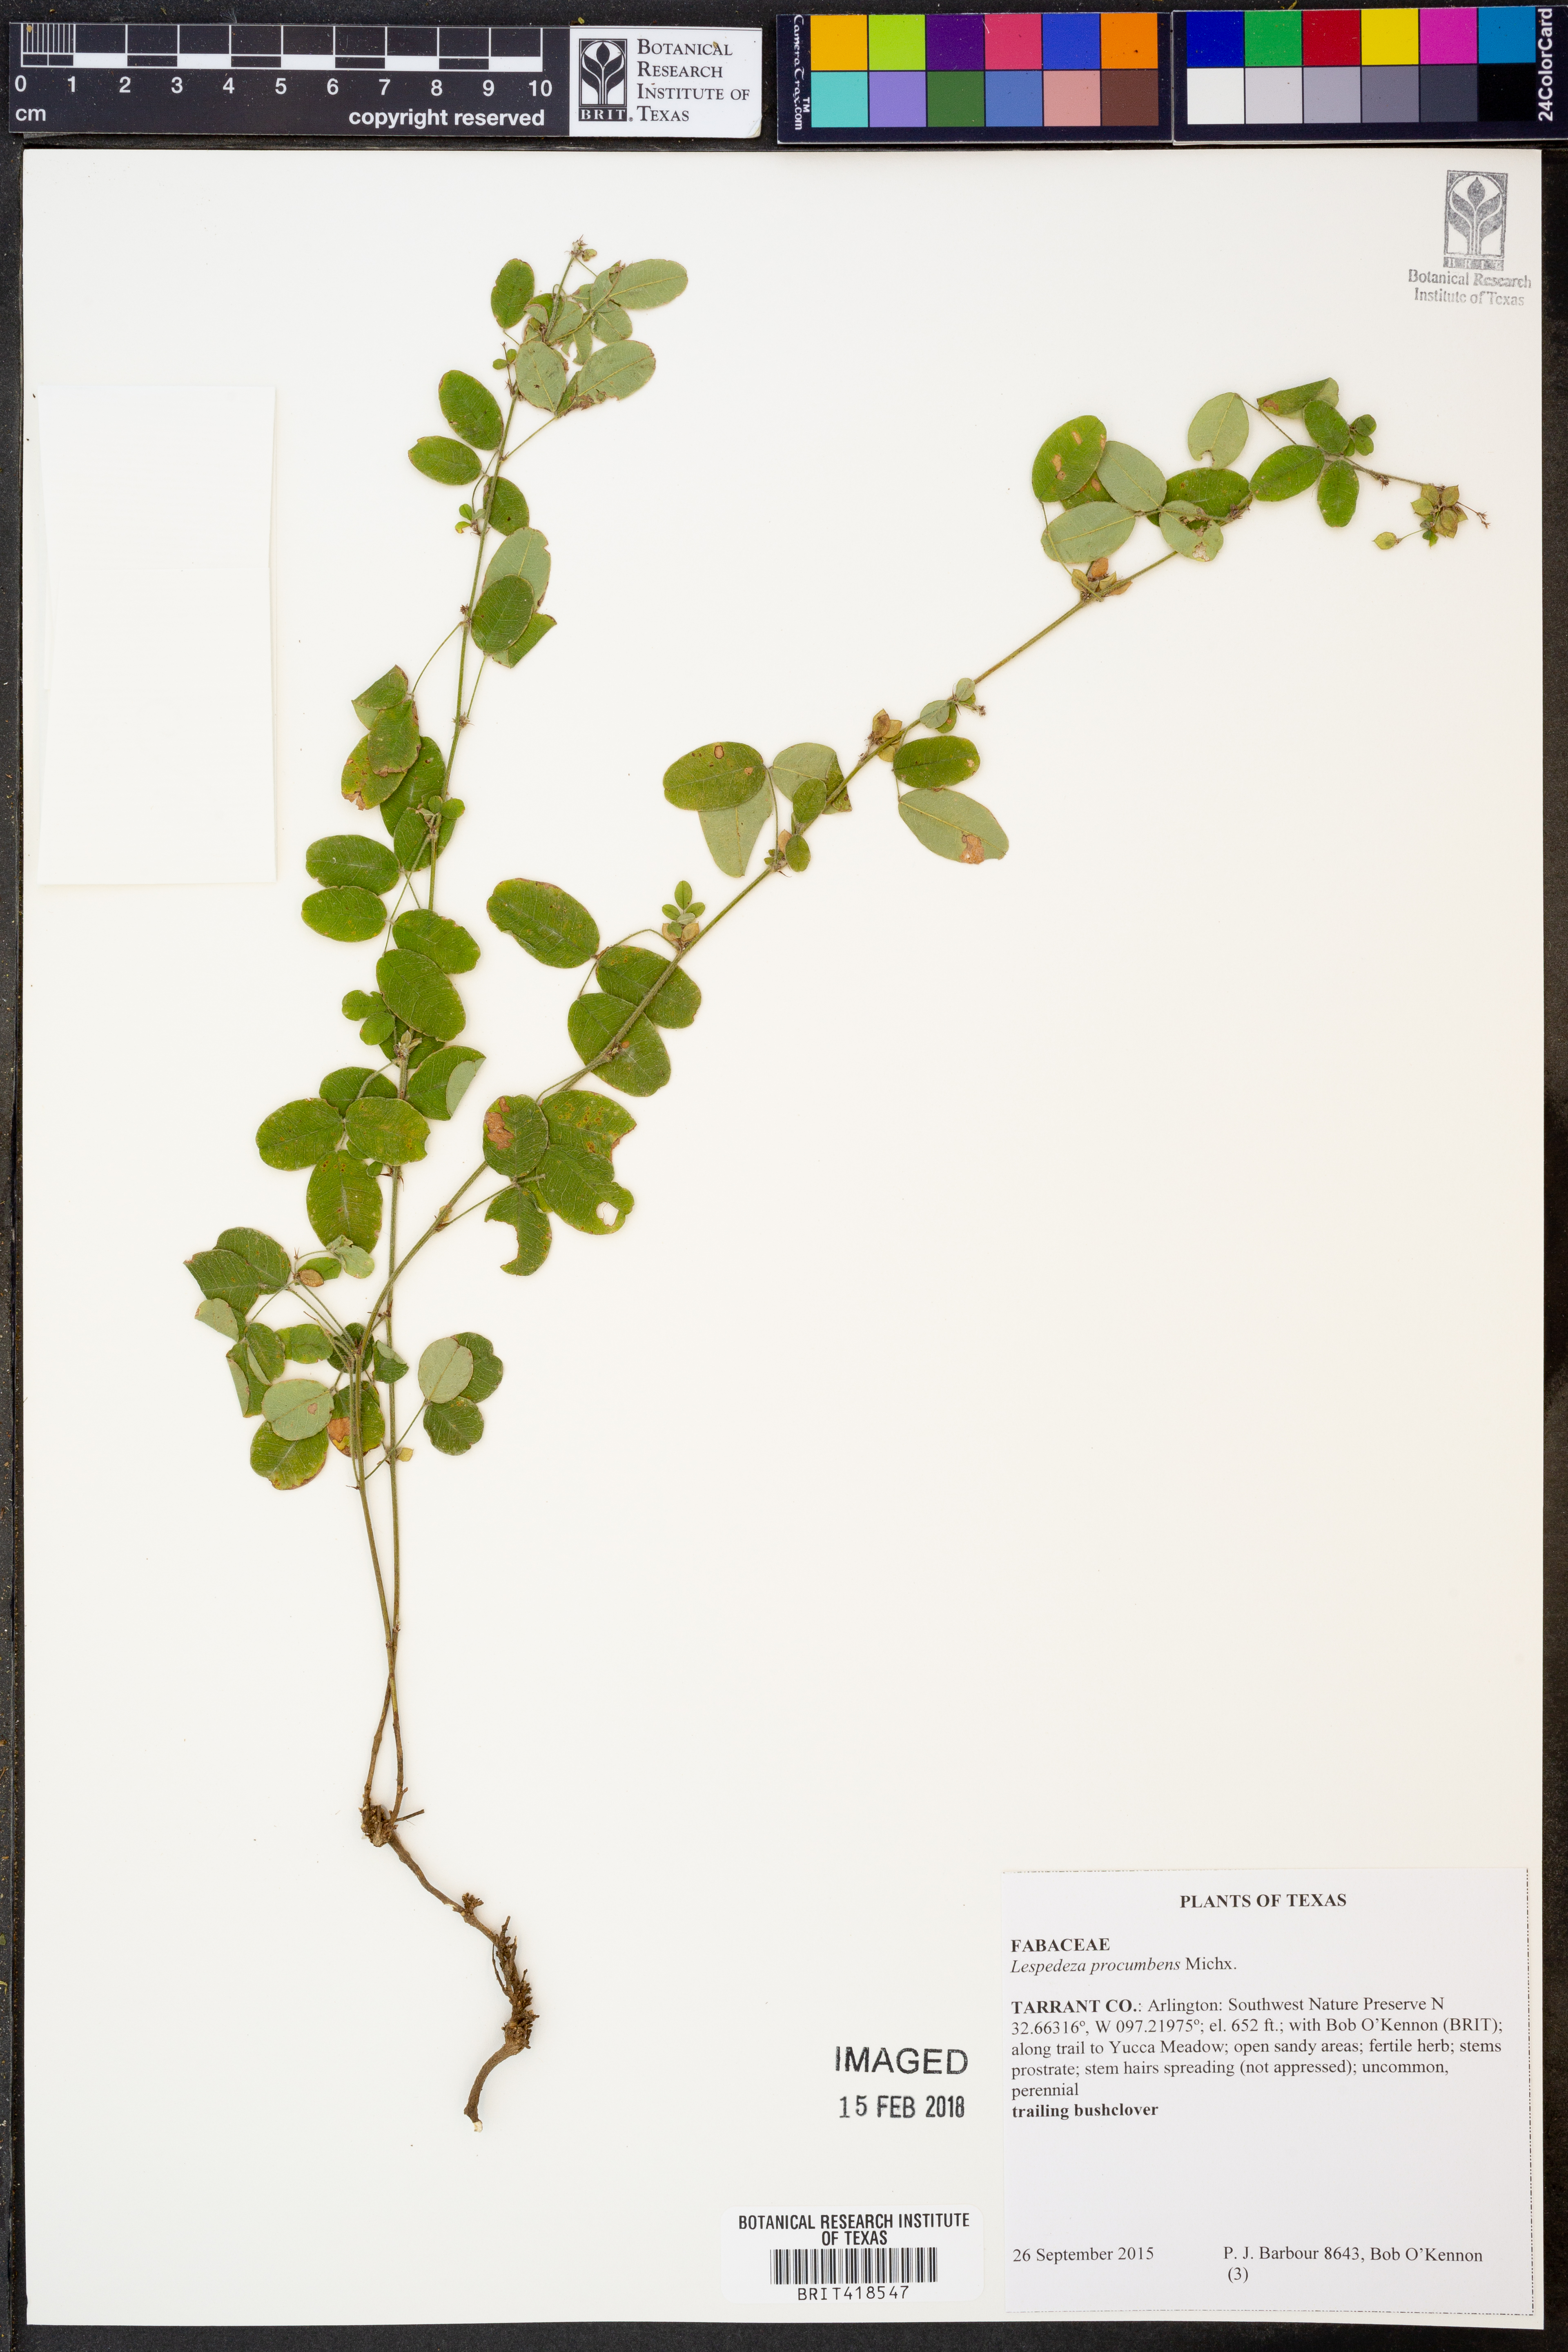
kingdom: Plantae
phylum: Tracheophyta
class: Magnoliopsida
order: Fabales
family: Fabaceae
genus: Lespedeza
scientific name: Lespedeza procumbens
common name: Downy trailing bush-clover
